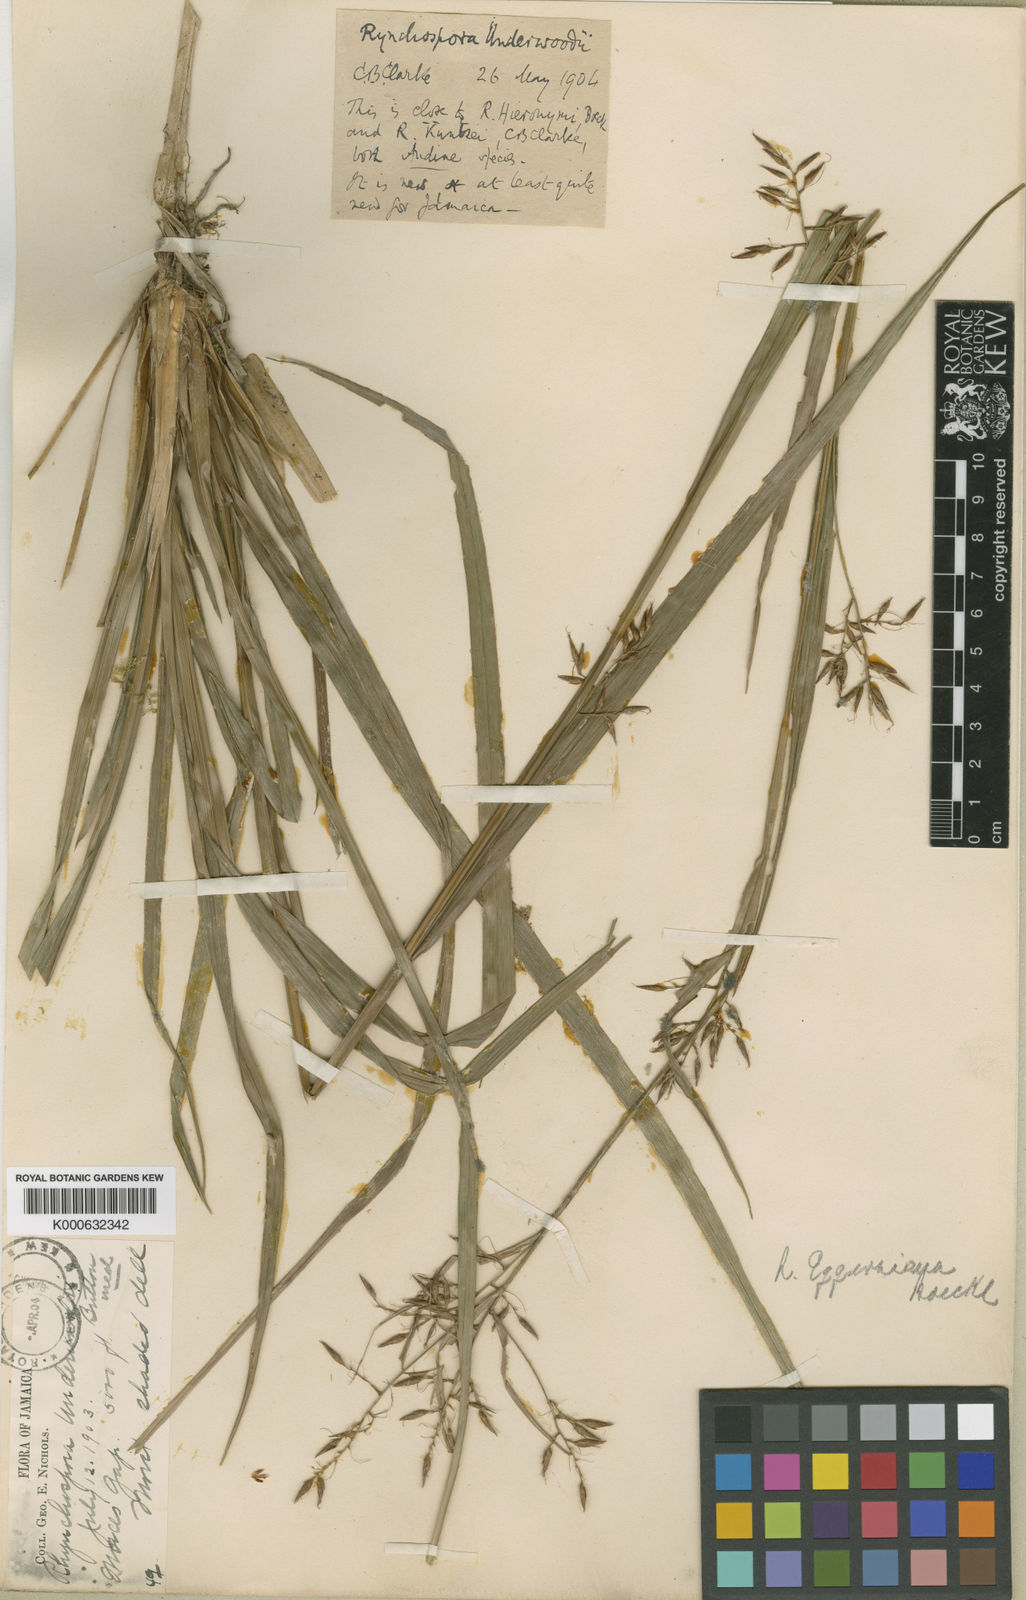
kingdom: Plantae
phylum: Tracheophyta
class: Liliopsida
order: Poales
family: Cyperaceae
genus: Rhynchospora
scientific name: Rhynchospora longiflora
